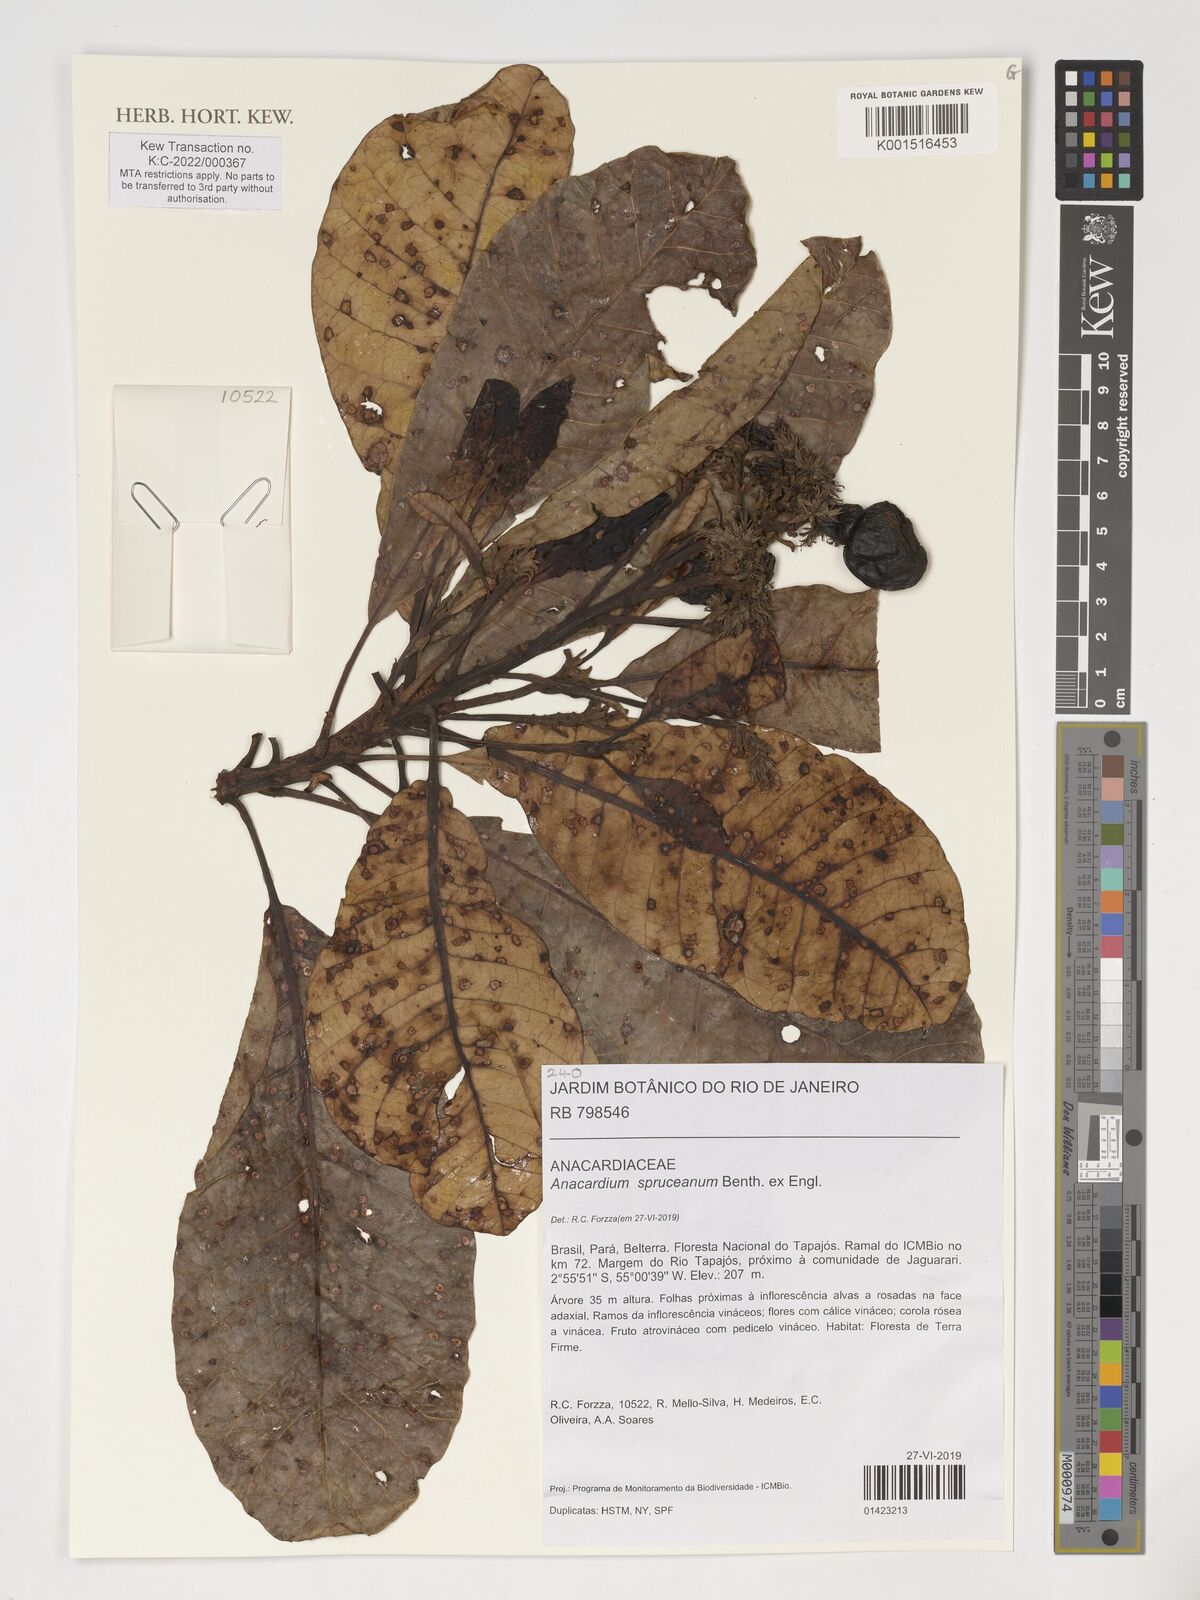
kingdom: Plantae
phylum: Tracheophyta
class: Magnoliopsida
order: Sapindales
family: Anacardiaceae
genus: Anacardium
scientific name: Anacardium spruceanum
